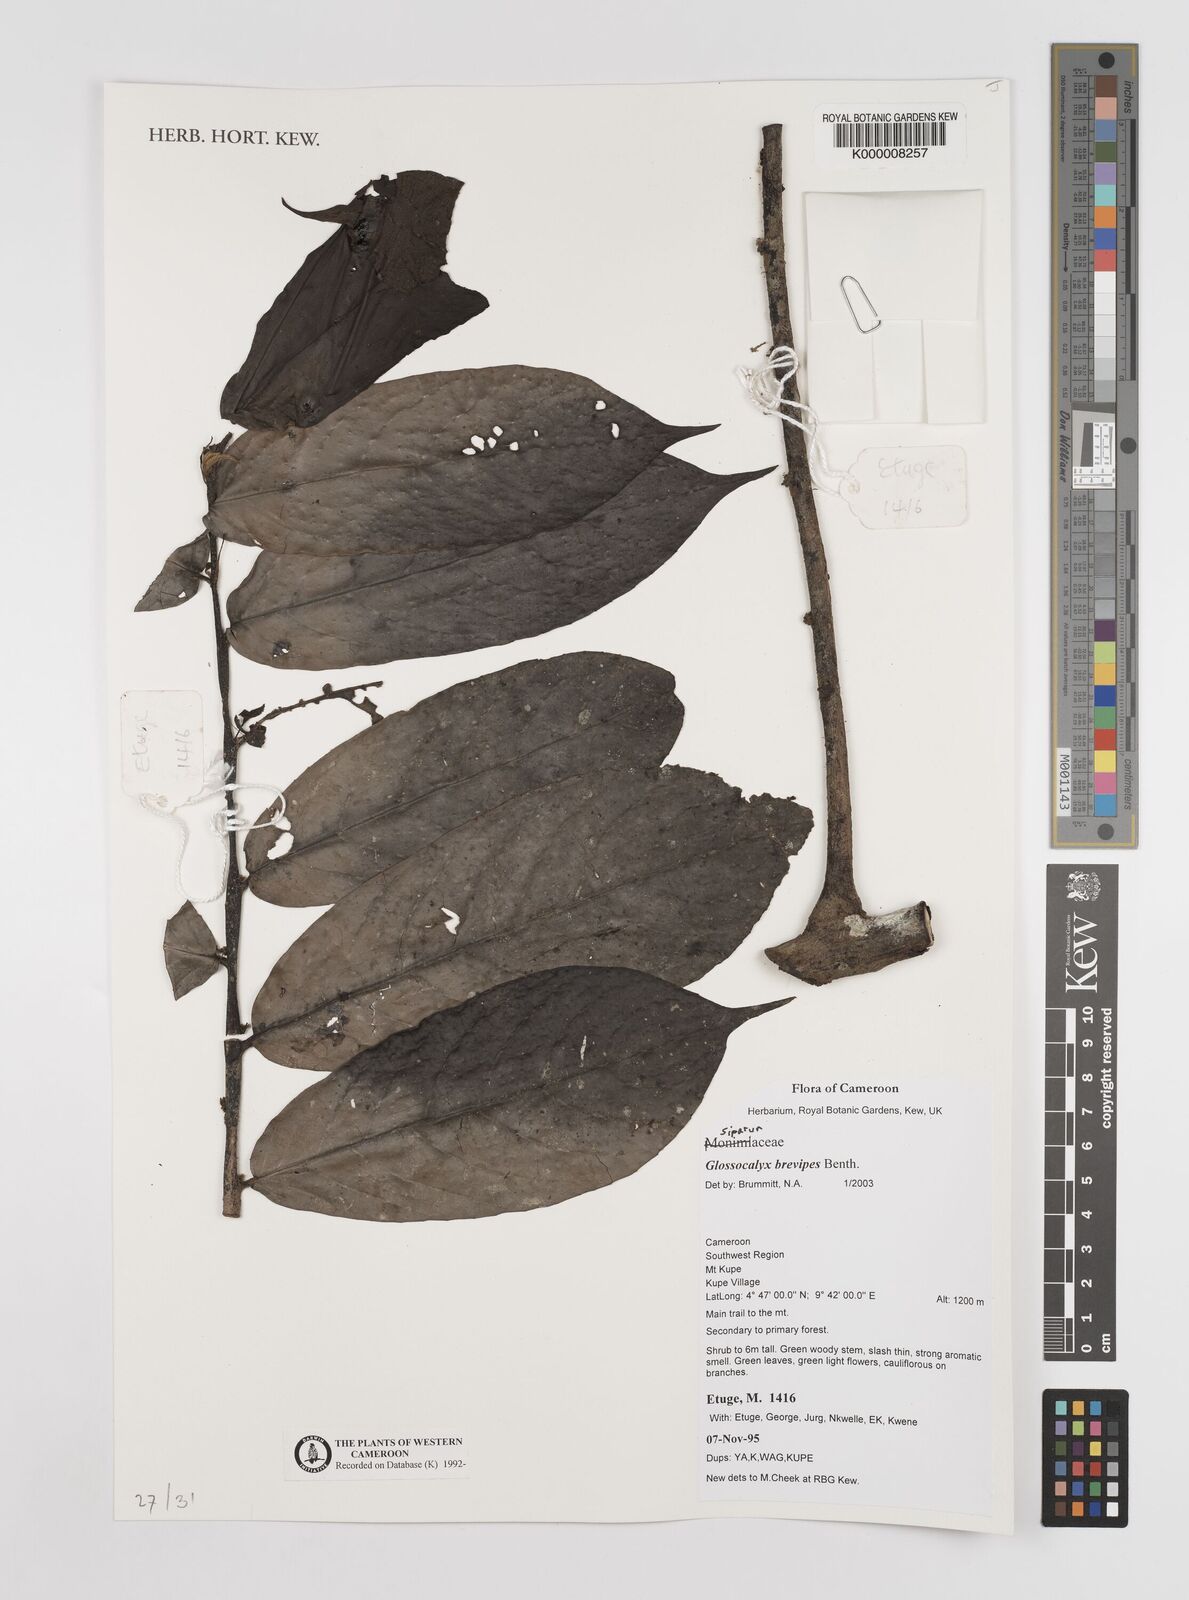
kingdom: Plantae
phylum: Tracheophyta
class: Magnoliopsida
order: Laurales
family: Siparunaceae
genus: Glossocalyx
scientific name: Glossocalyx brevipes
